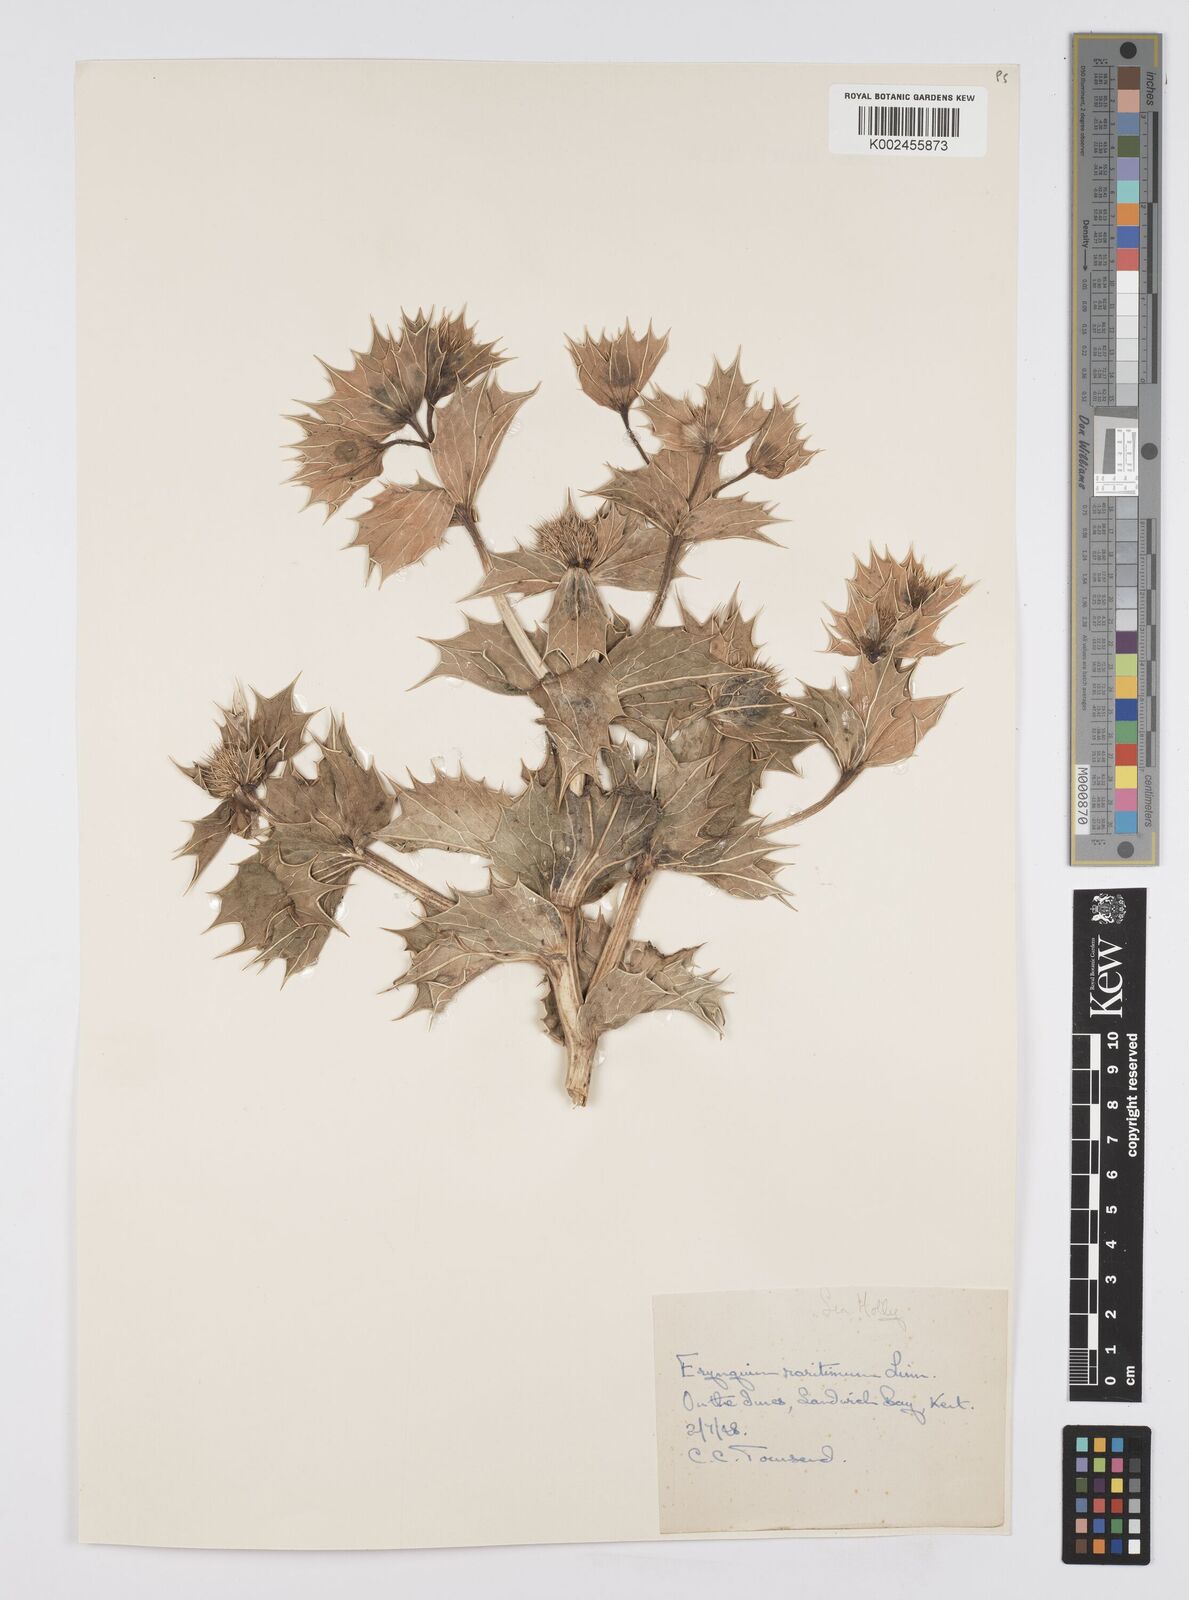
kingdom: Plantae
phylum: Tracheophyta
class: Magnoliopsida
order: Apiales
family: Apiaceae
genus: Eryngium
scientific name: Eryngium maritimum
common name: Sea-holly
